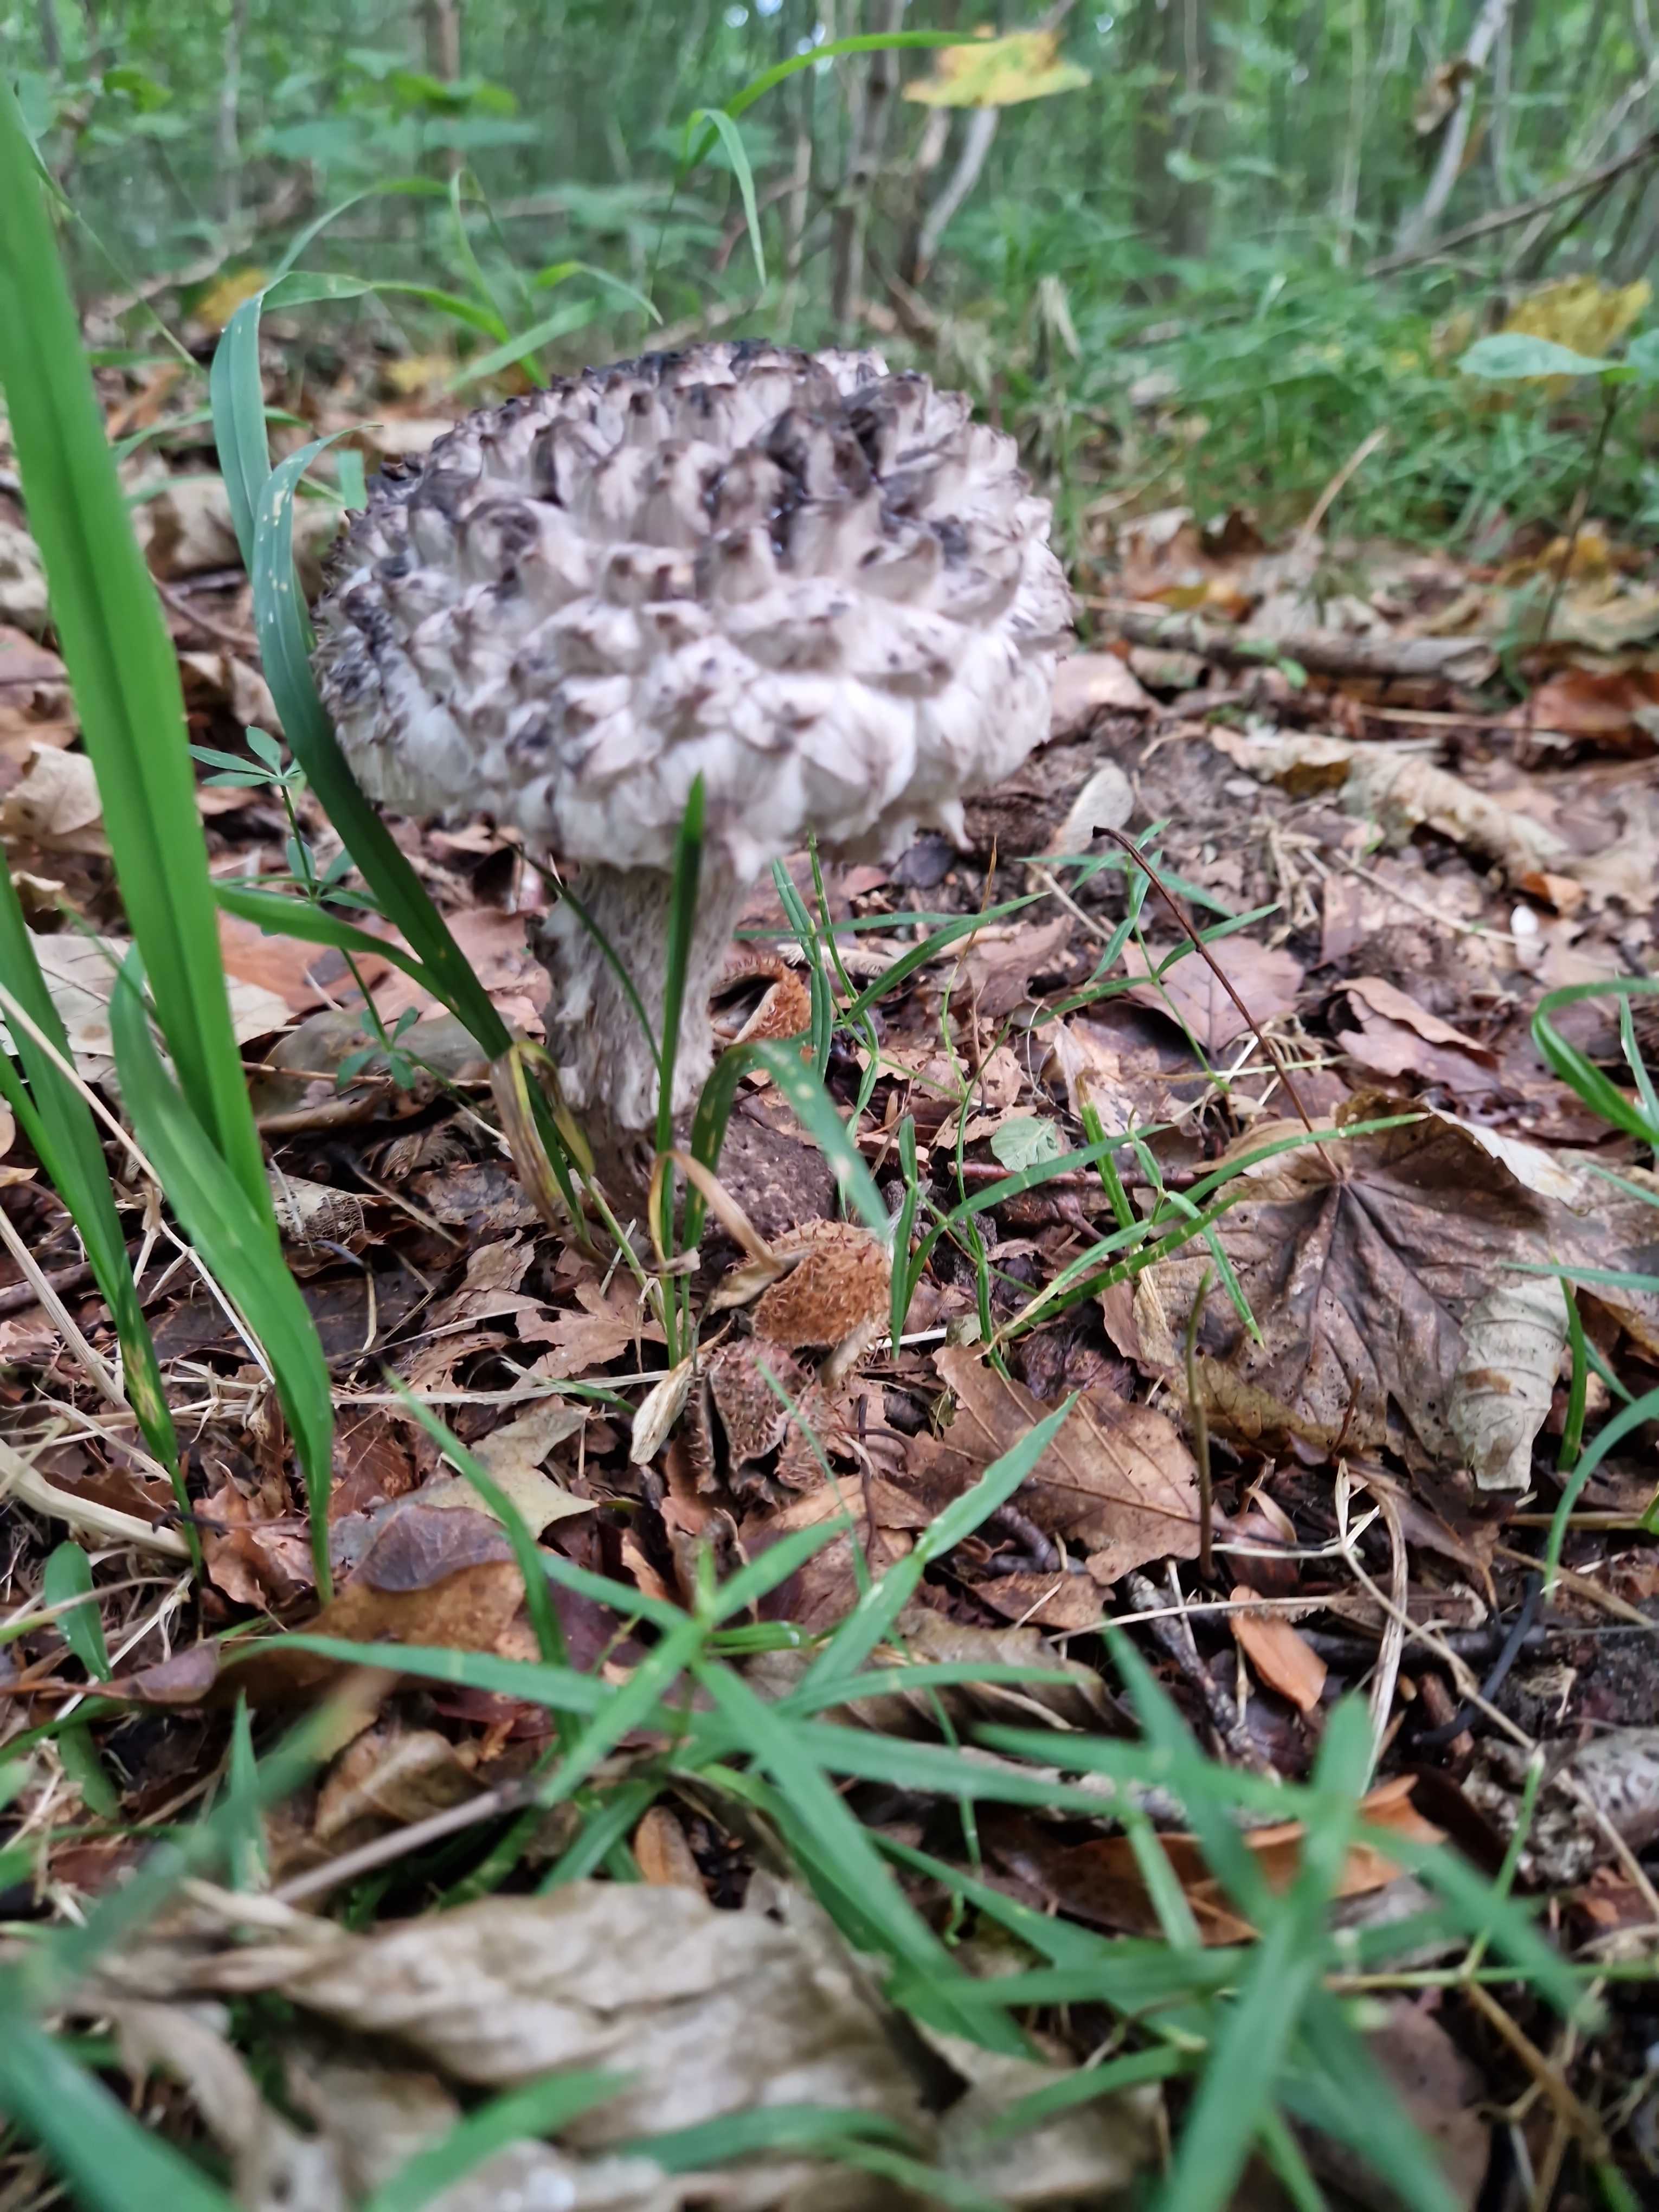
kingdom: Fungi
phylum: Basidiomycota
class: Agaricomycetes
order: Boletales
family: Boletaceae
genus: Strobilomyces
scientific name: Strobilomyces strobilaceus
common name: koglerørhat
